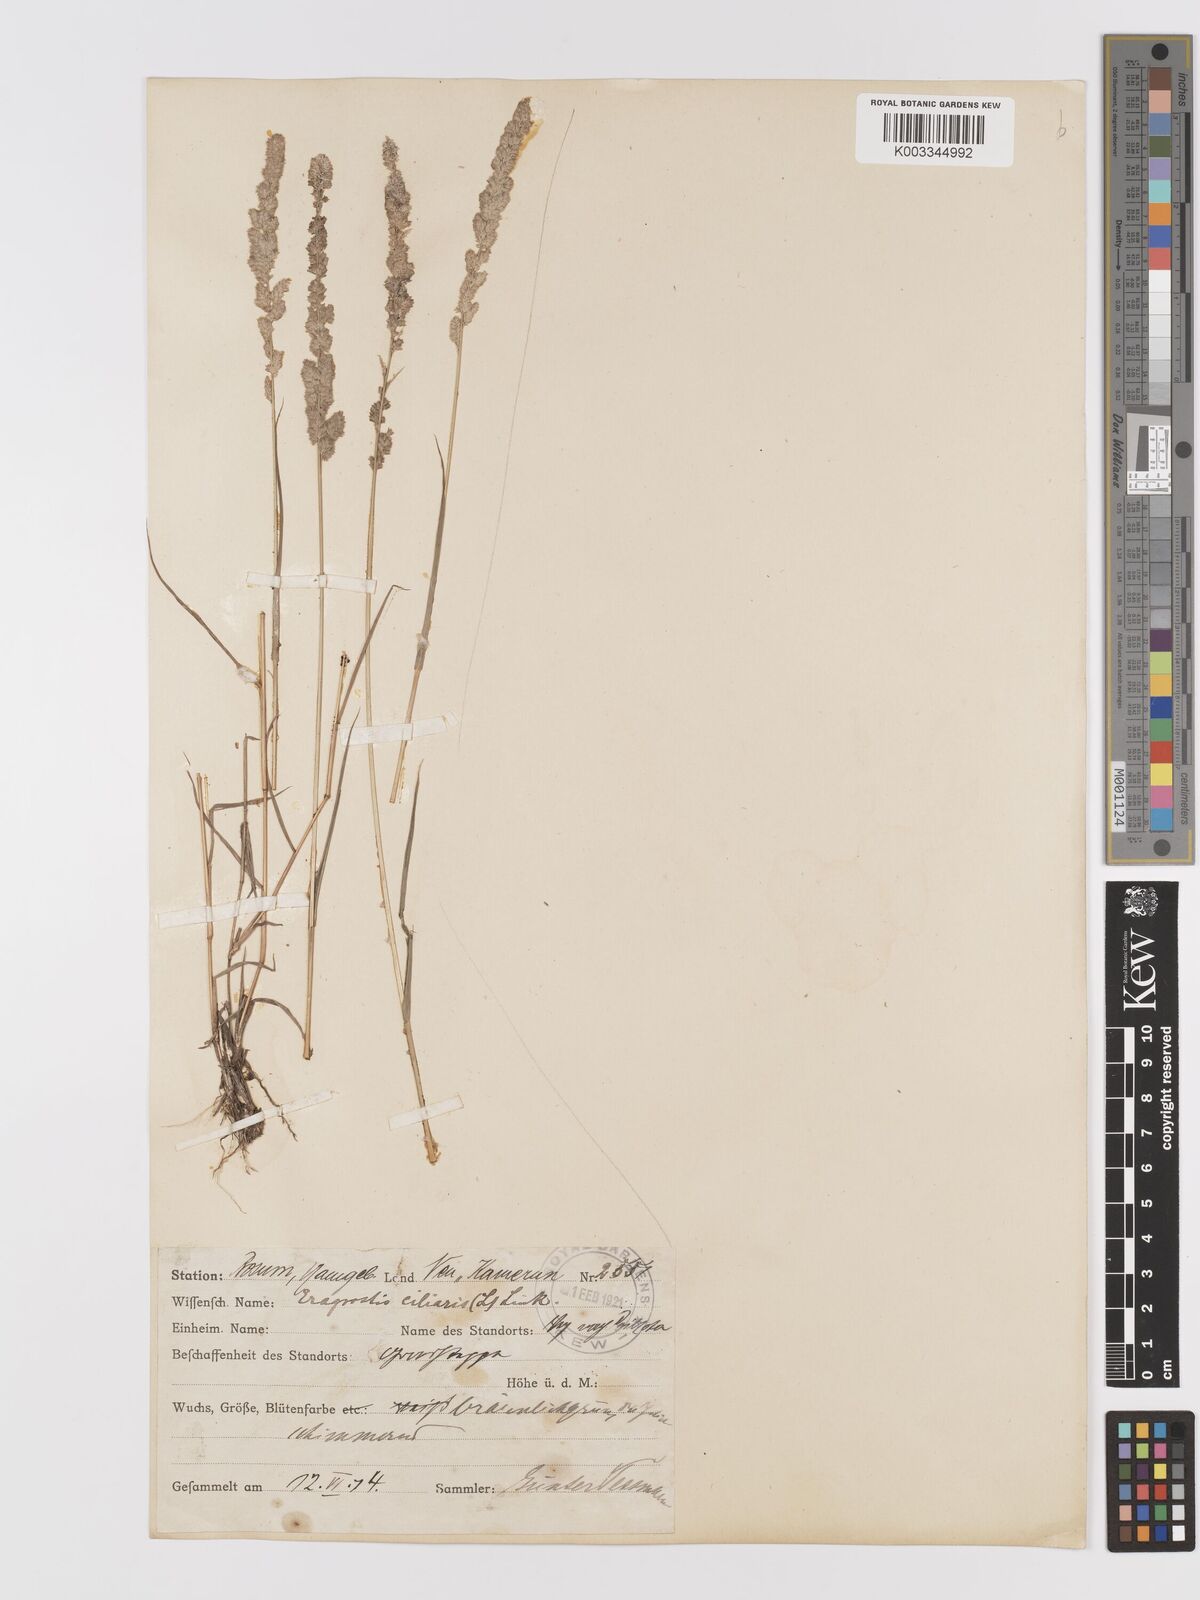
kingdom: Plantae
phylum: Tracheophyta
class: Liliopsida
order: Poales
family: Poaceae
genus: Eragrostis
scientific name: Eragrostis ciliaris
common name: Gophertail lovegrass
